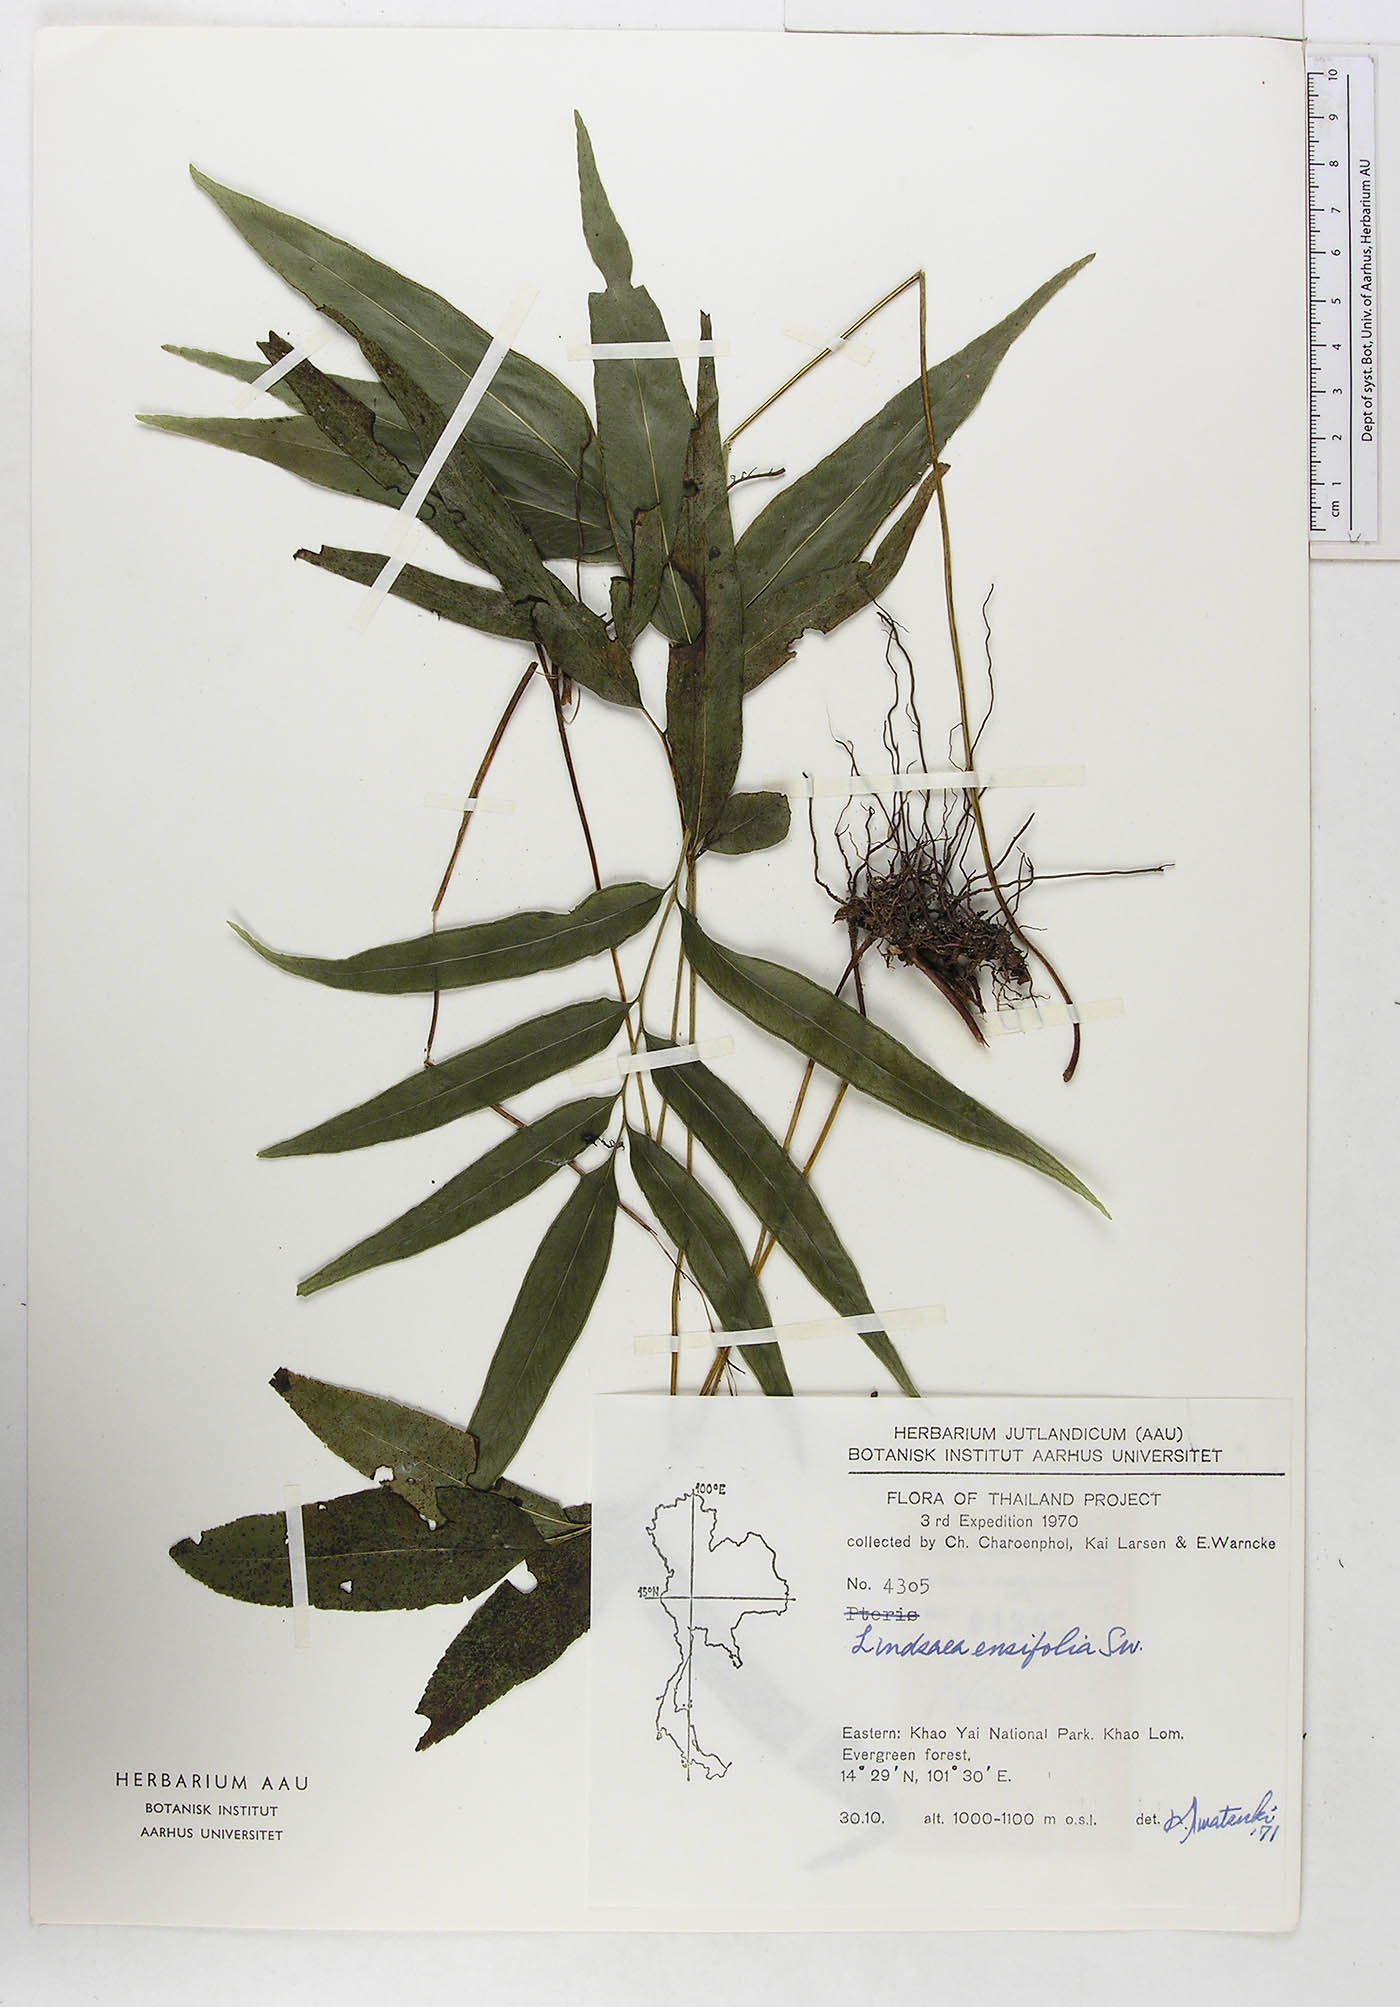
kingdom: Plantae
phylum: Tracheophyta
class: Polypodiopsida
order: Polypodiales
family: Lindsaeaceae
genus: Lindsaea
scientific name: Lindsaea ensifolia
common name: Graceful necklace fern
